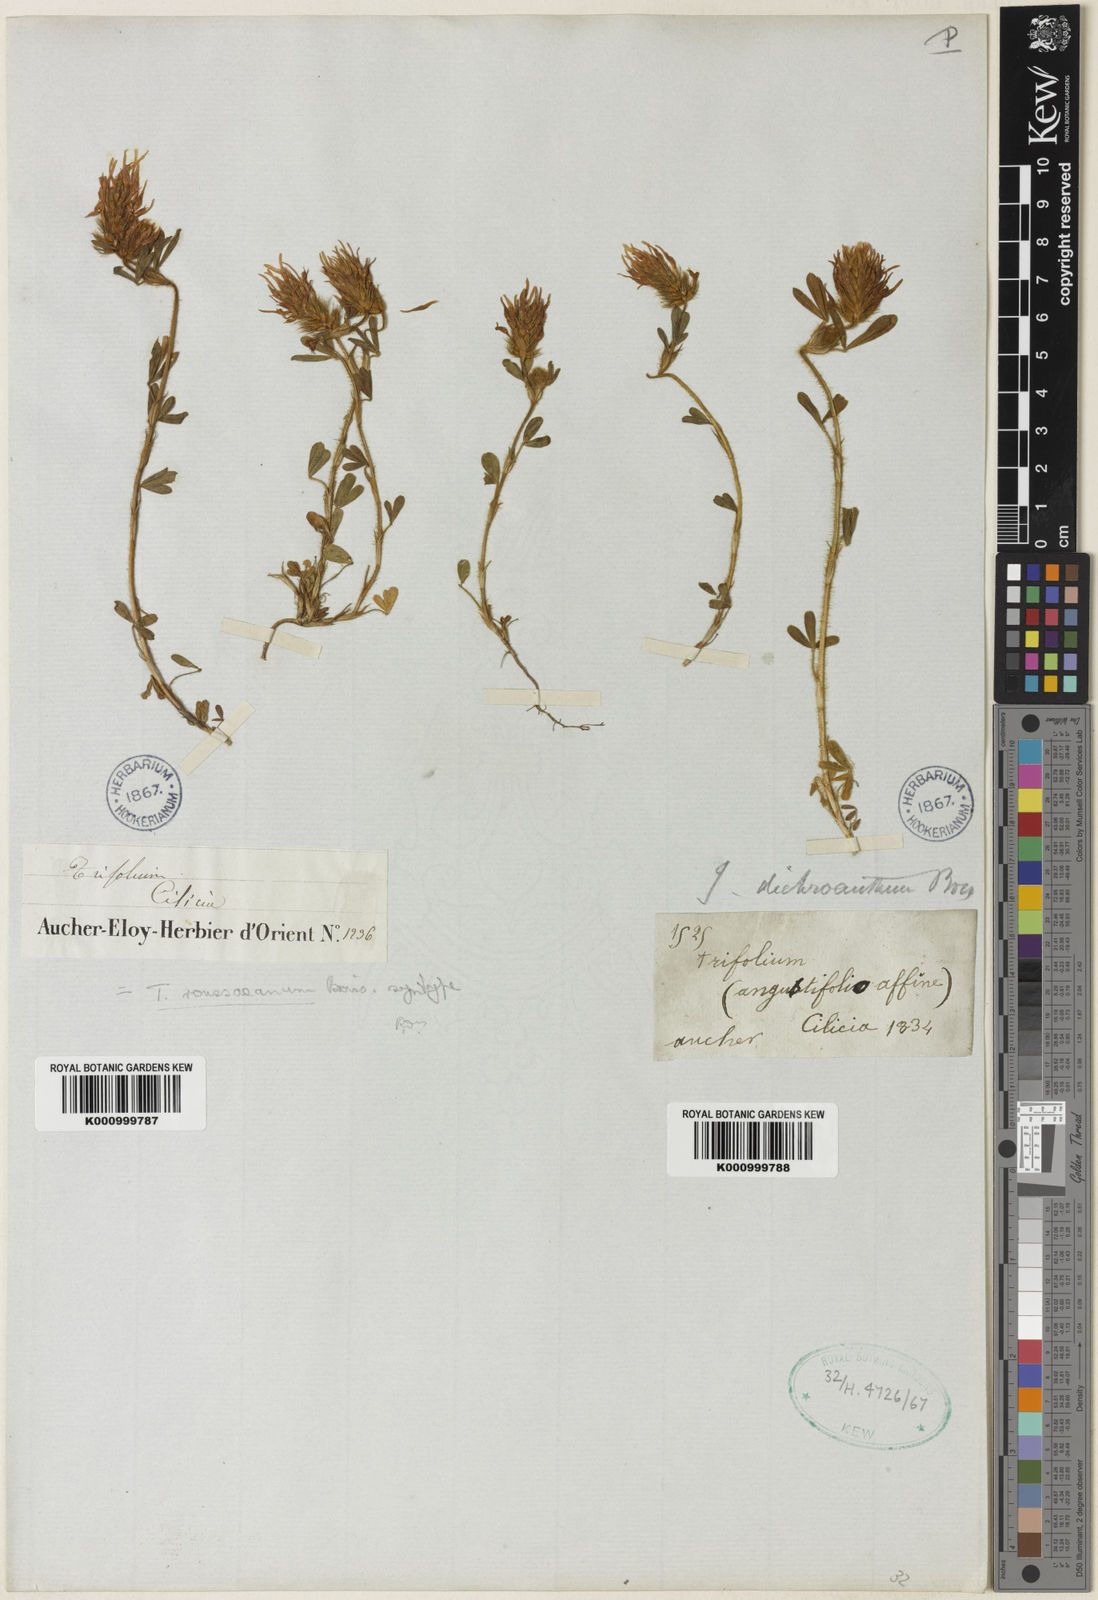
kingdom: Plantae
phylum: Tracheophyta
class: Magnoliopsida
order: Fabales
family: Fabaceae
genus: Trifolium
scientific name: Trifolium dichroanthum
